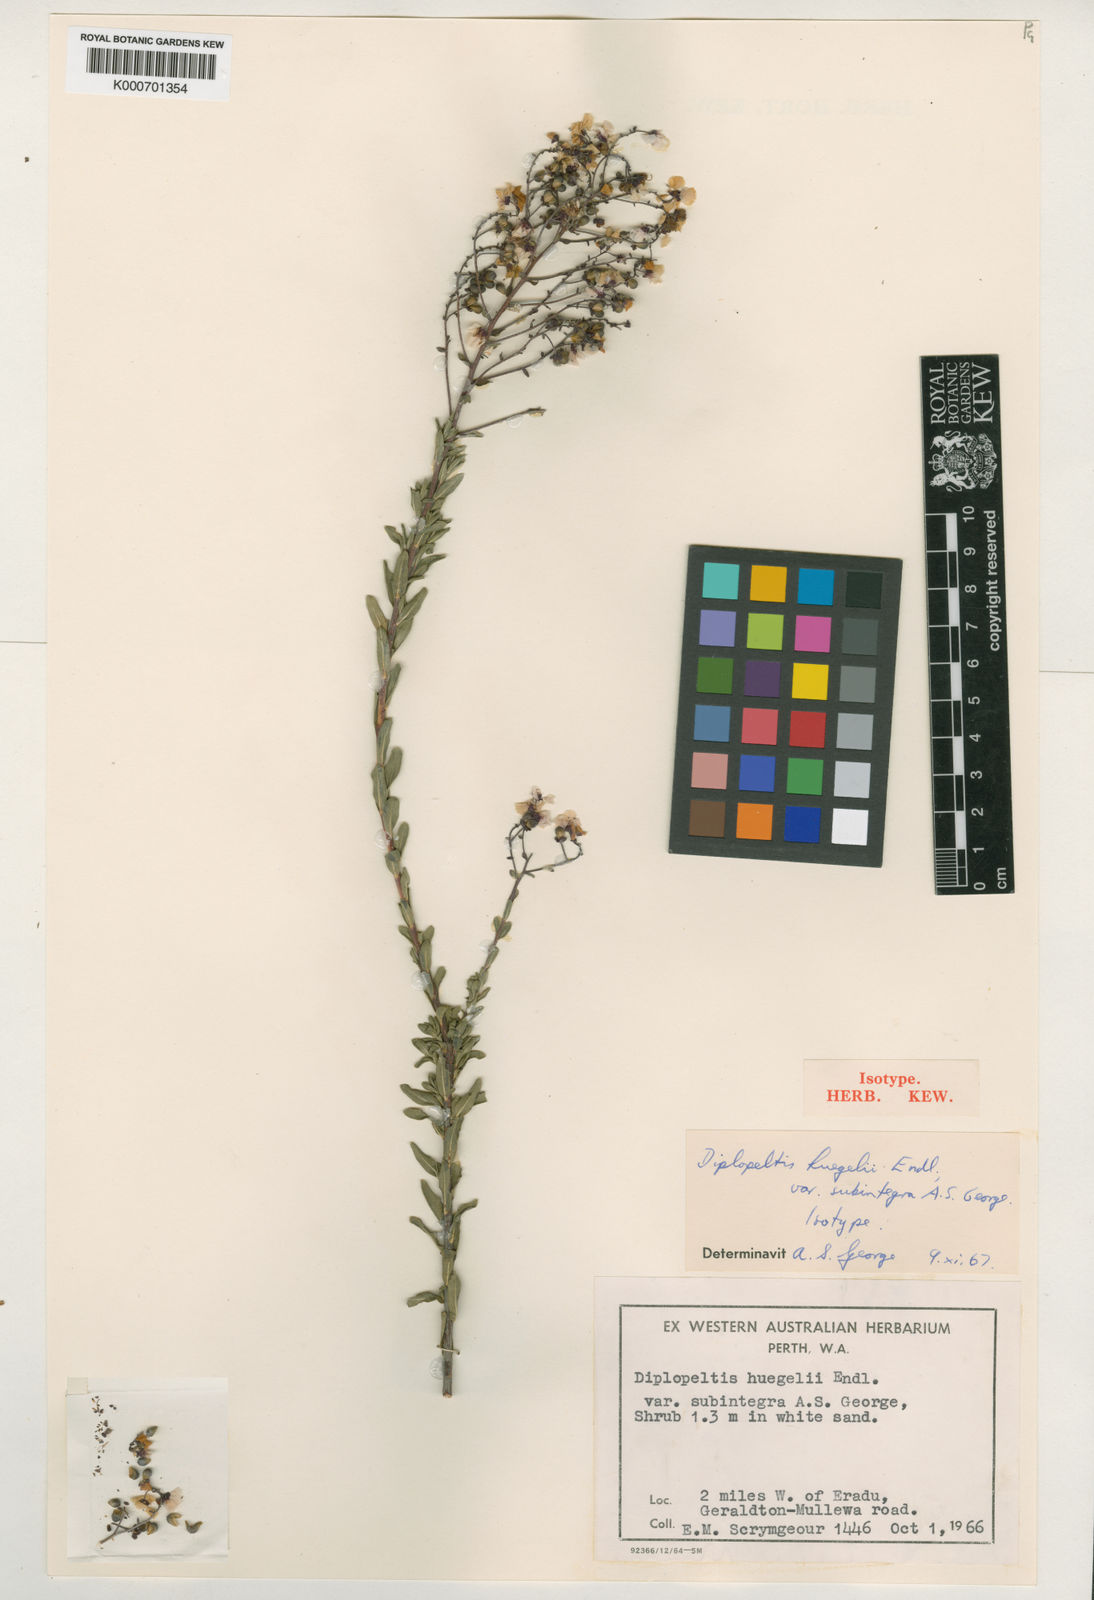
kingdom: Plantae
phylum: Tracheophyta
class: Magnoliopsida
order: Sapindales
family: Sapindaceae
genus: Diplopeltis
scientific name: Diplopeltis huegelii
